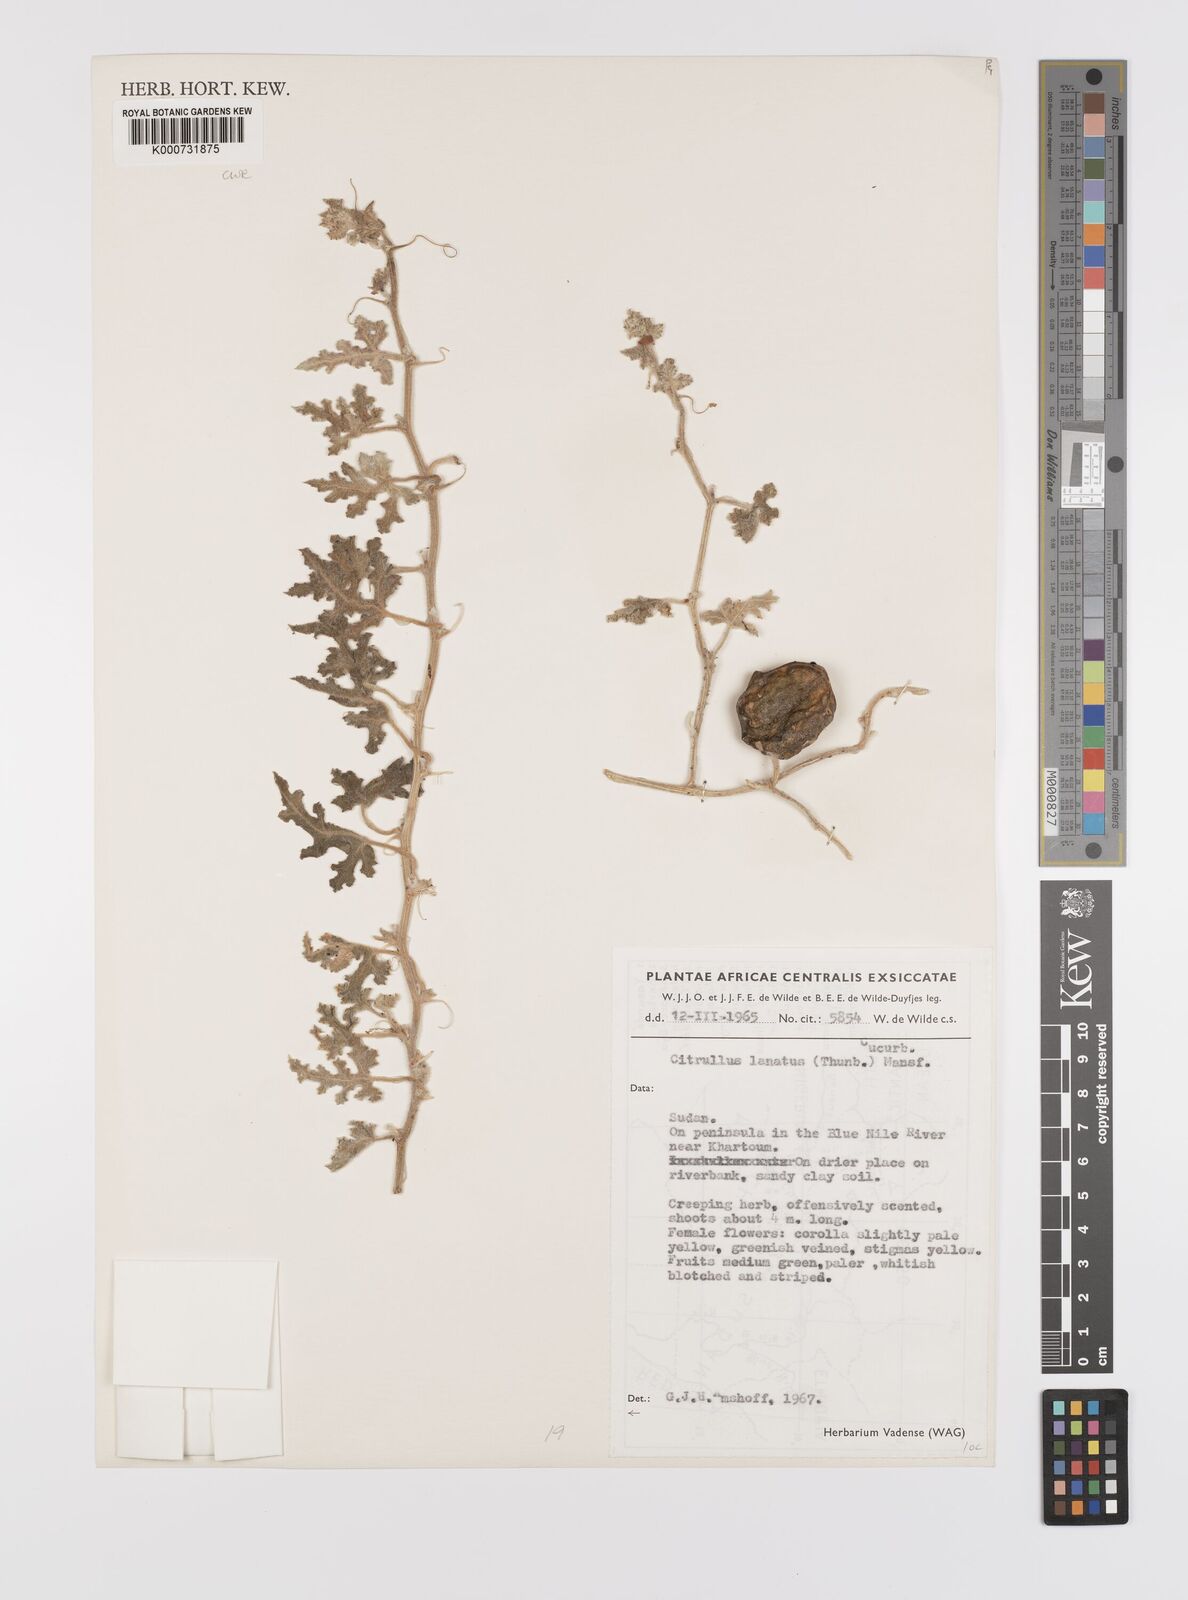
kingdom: Plantae
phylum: Tracheophyta
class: Magnoliopsida
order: Cucurbitales
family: Cucurbitaceae
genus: Citrullus
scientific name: Citrullus lanatus
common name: Watermelon
